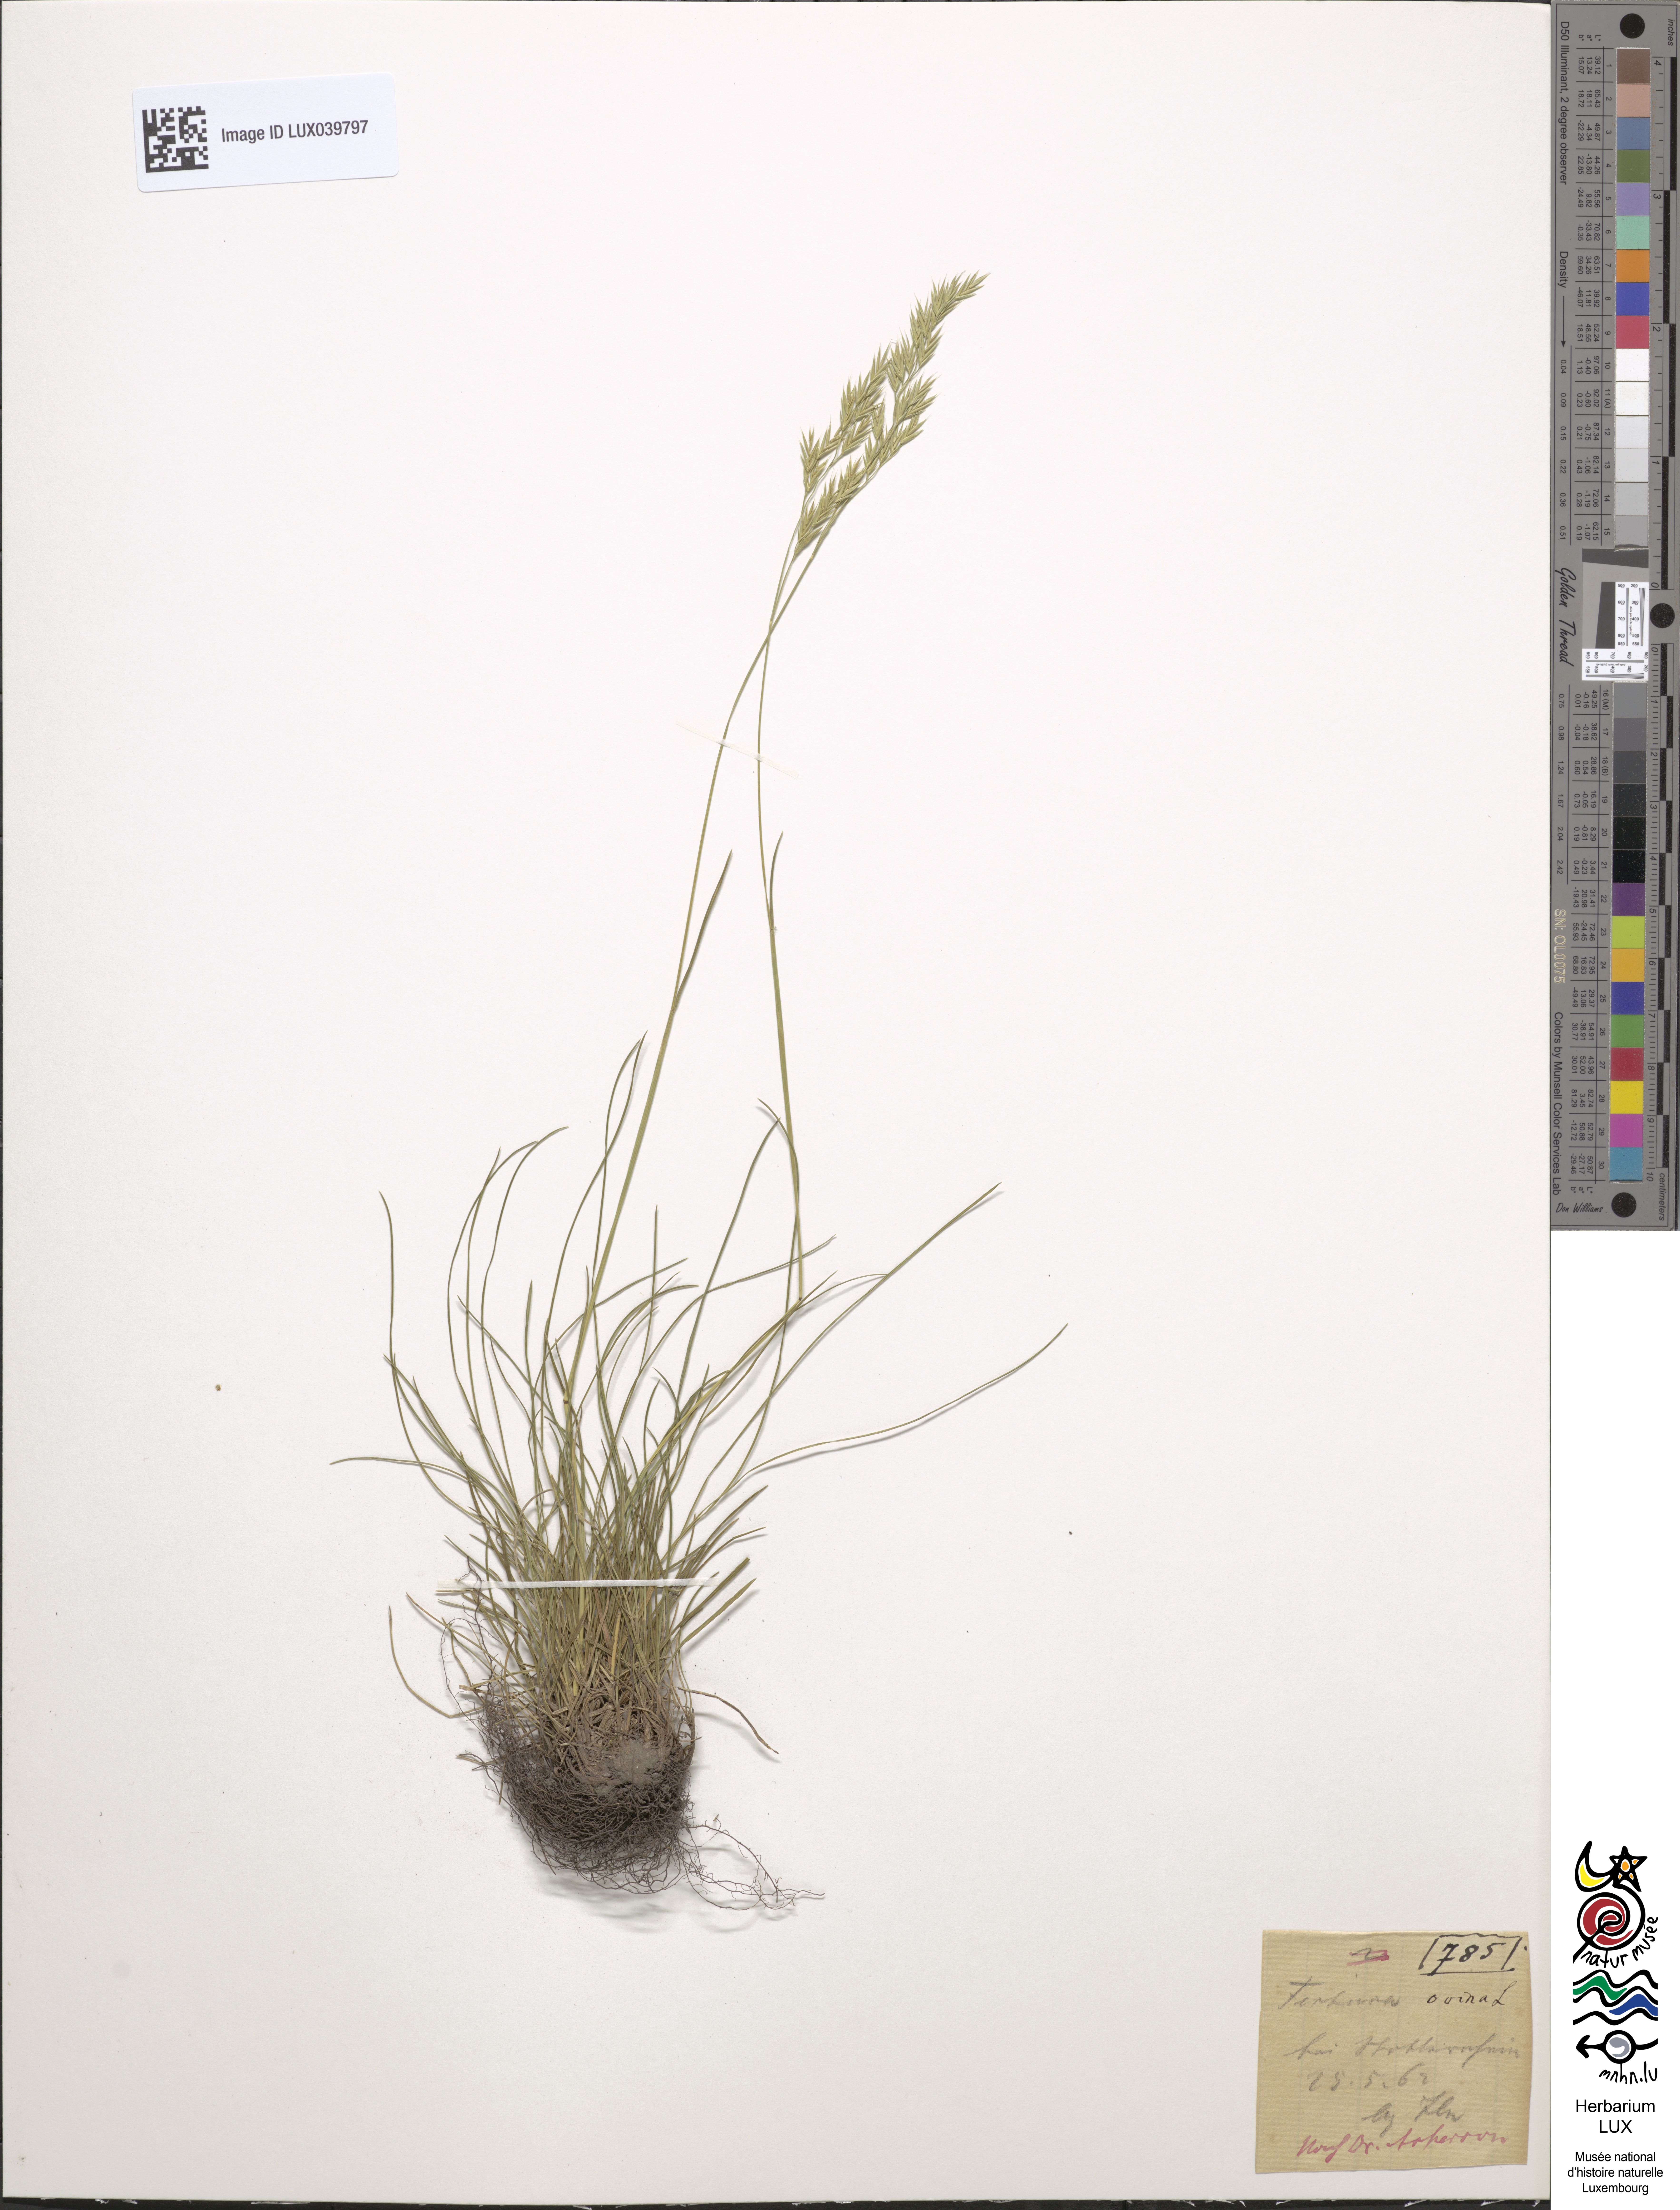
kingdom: Plantae
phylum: Tracheophyta
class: Liliopsida
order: Poales
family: Poaceae
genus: Festuca
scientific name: Festuca ovina
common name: Sheep fescue
